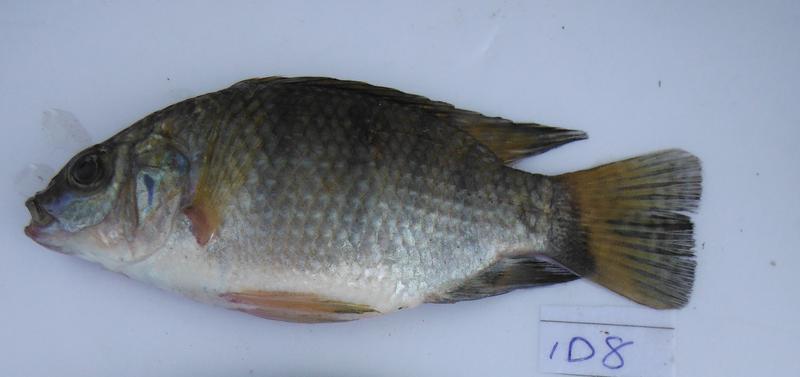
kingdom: Animalia
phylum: Chordata
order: Perciformes
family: Cichlidae
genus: Oreochromis
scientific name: Oreochromis urolepis
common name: Wami tilapia
